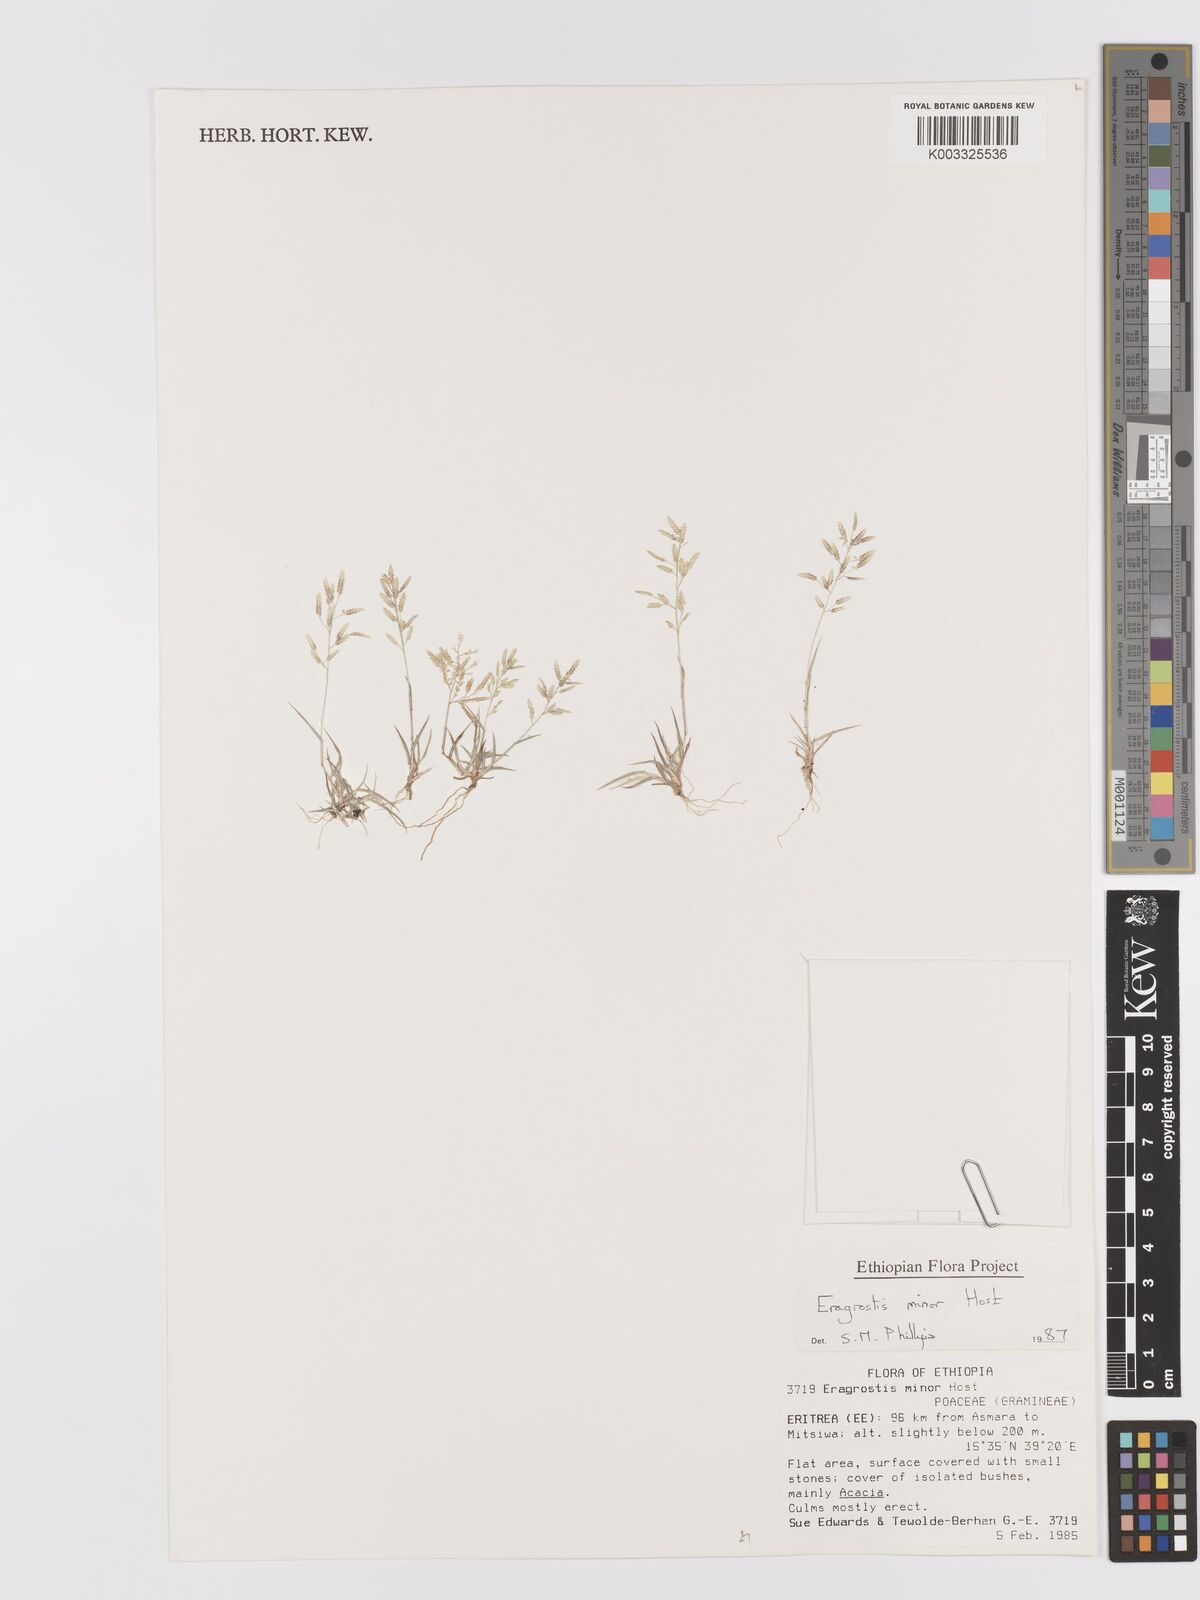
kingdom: Plantae
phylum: Tracheophyta
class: Liliopsida
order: Poales
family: Poaceae
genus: Eragrostis
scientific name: Eragrostis minor
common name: Small love-grass
